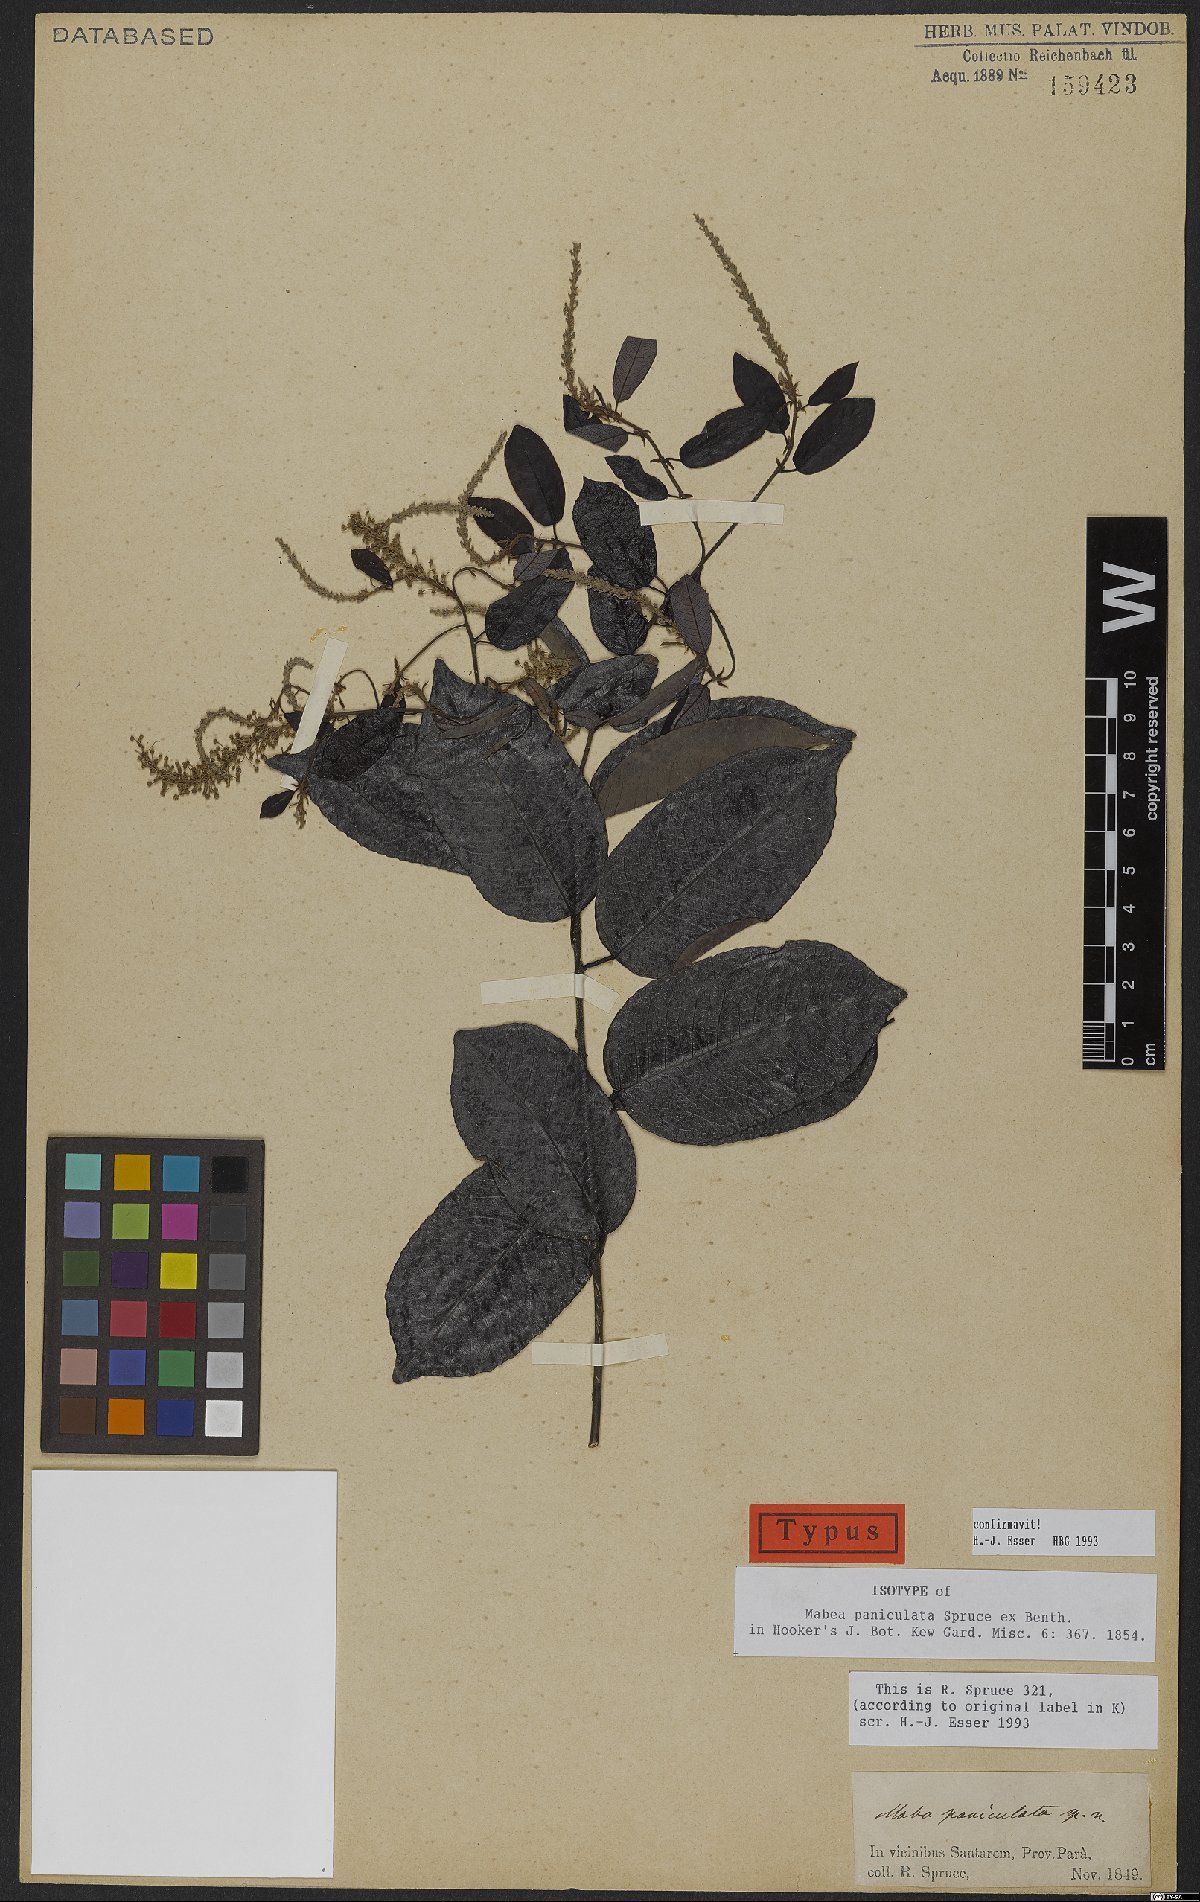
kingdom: Plantae
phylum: Tracheophyta
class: Magnoliopsida
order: Malpighiales
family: Euphorbiaceae
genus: Mabea
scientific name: Mabea paniculata
